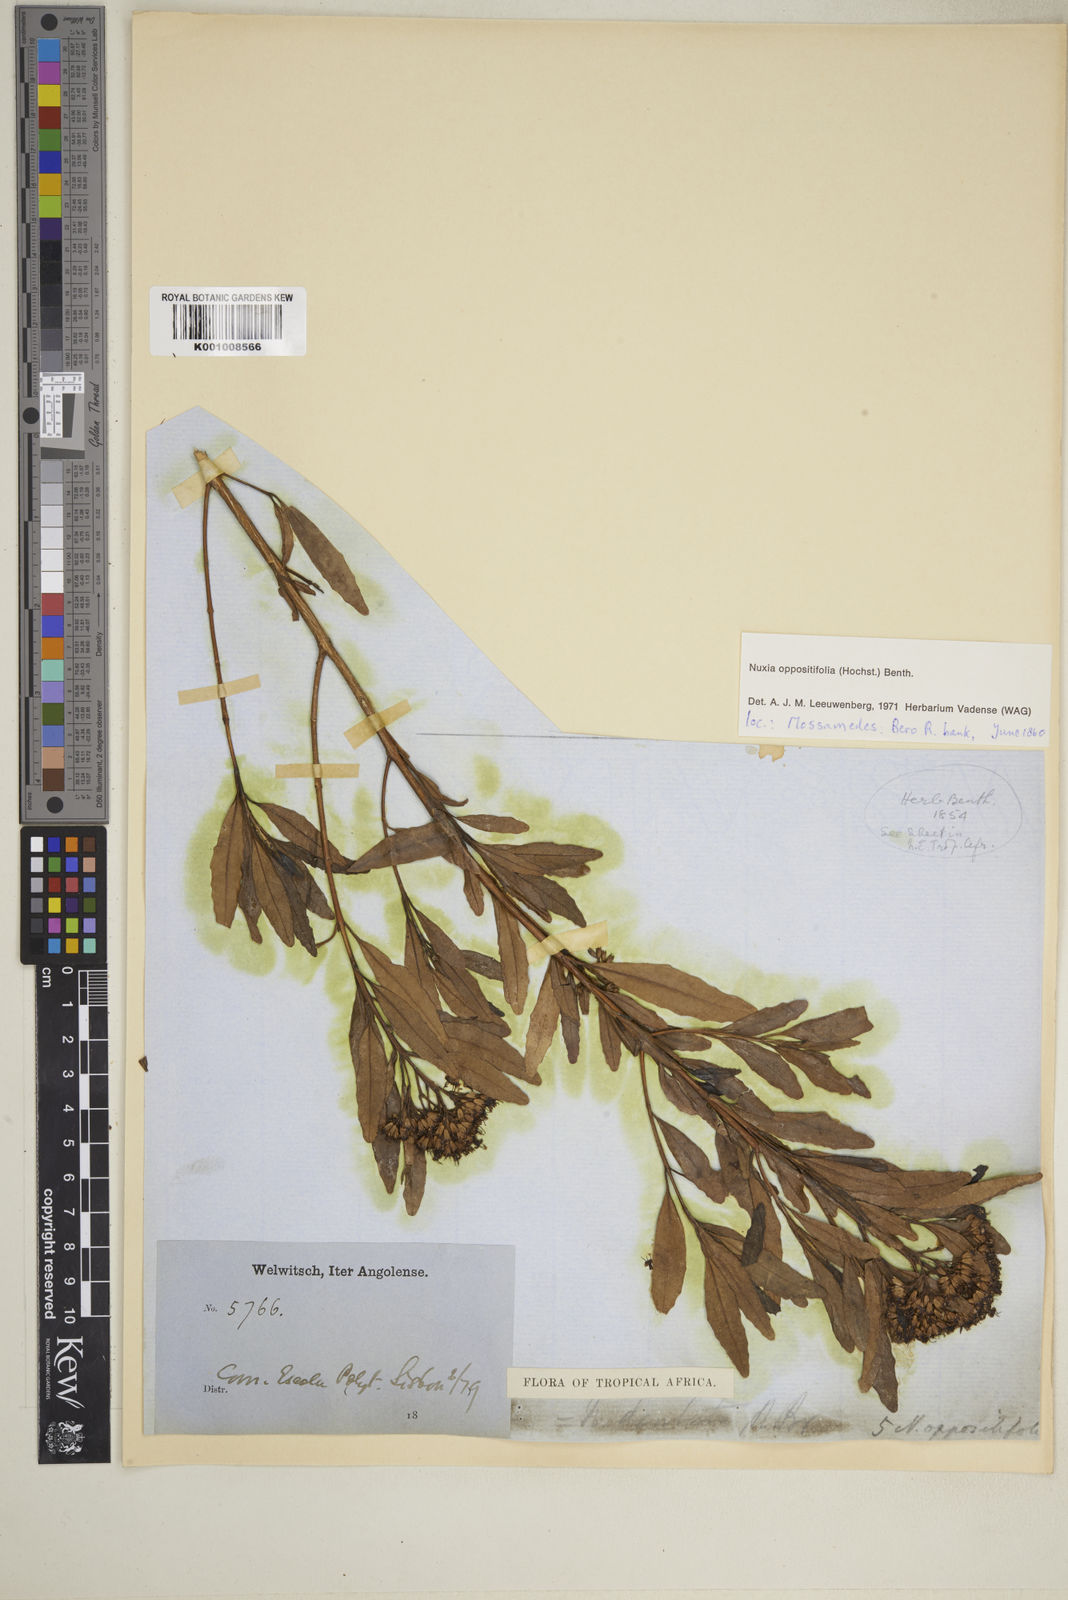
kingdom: Plantae
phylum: Tracheophyta
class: Magnoliopsida
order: Lamiales
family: Stilbaceae
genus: Nuxia
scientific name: Nuxia oppositifolia
